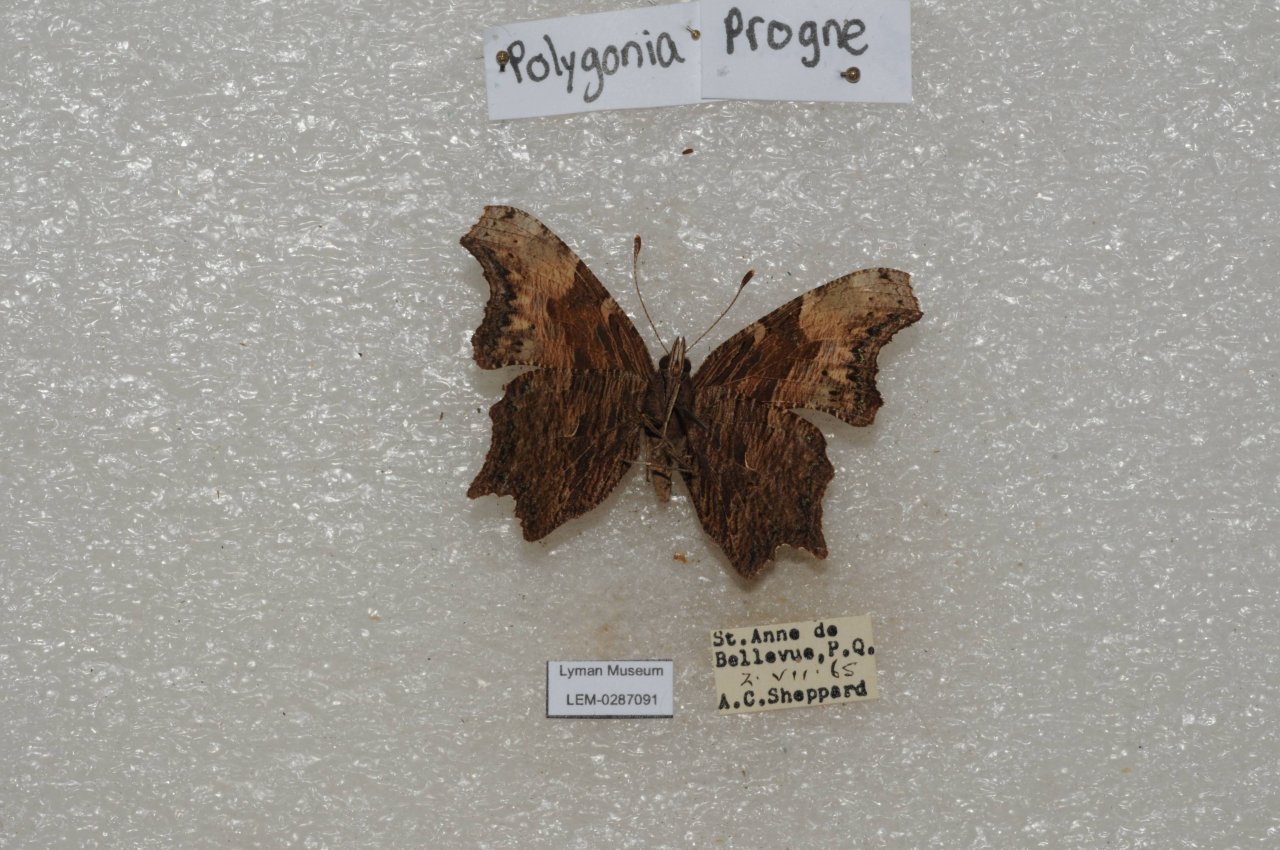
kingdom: Animalia
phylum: Arthropoda
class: Insecta
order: Lepidoptera
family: Nymphalidae
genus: Polygonia
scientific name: Polygonia progne
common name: Gray Comma
